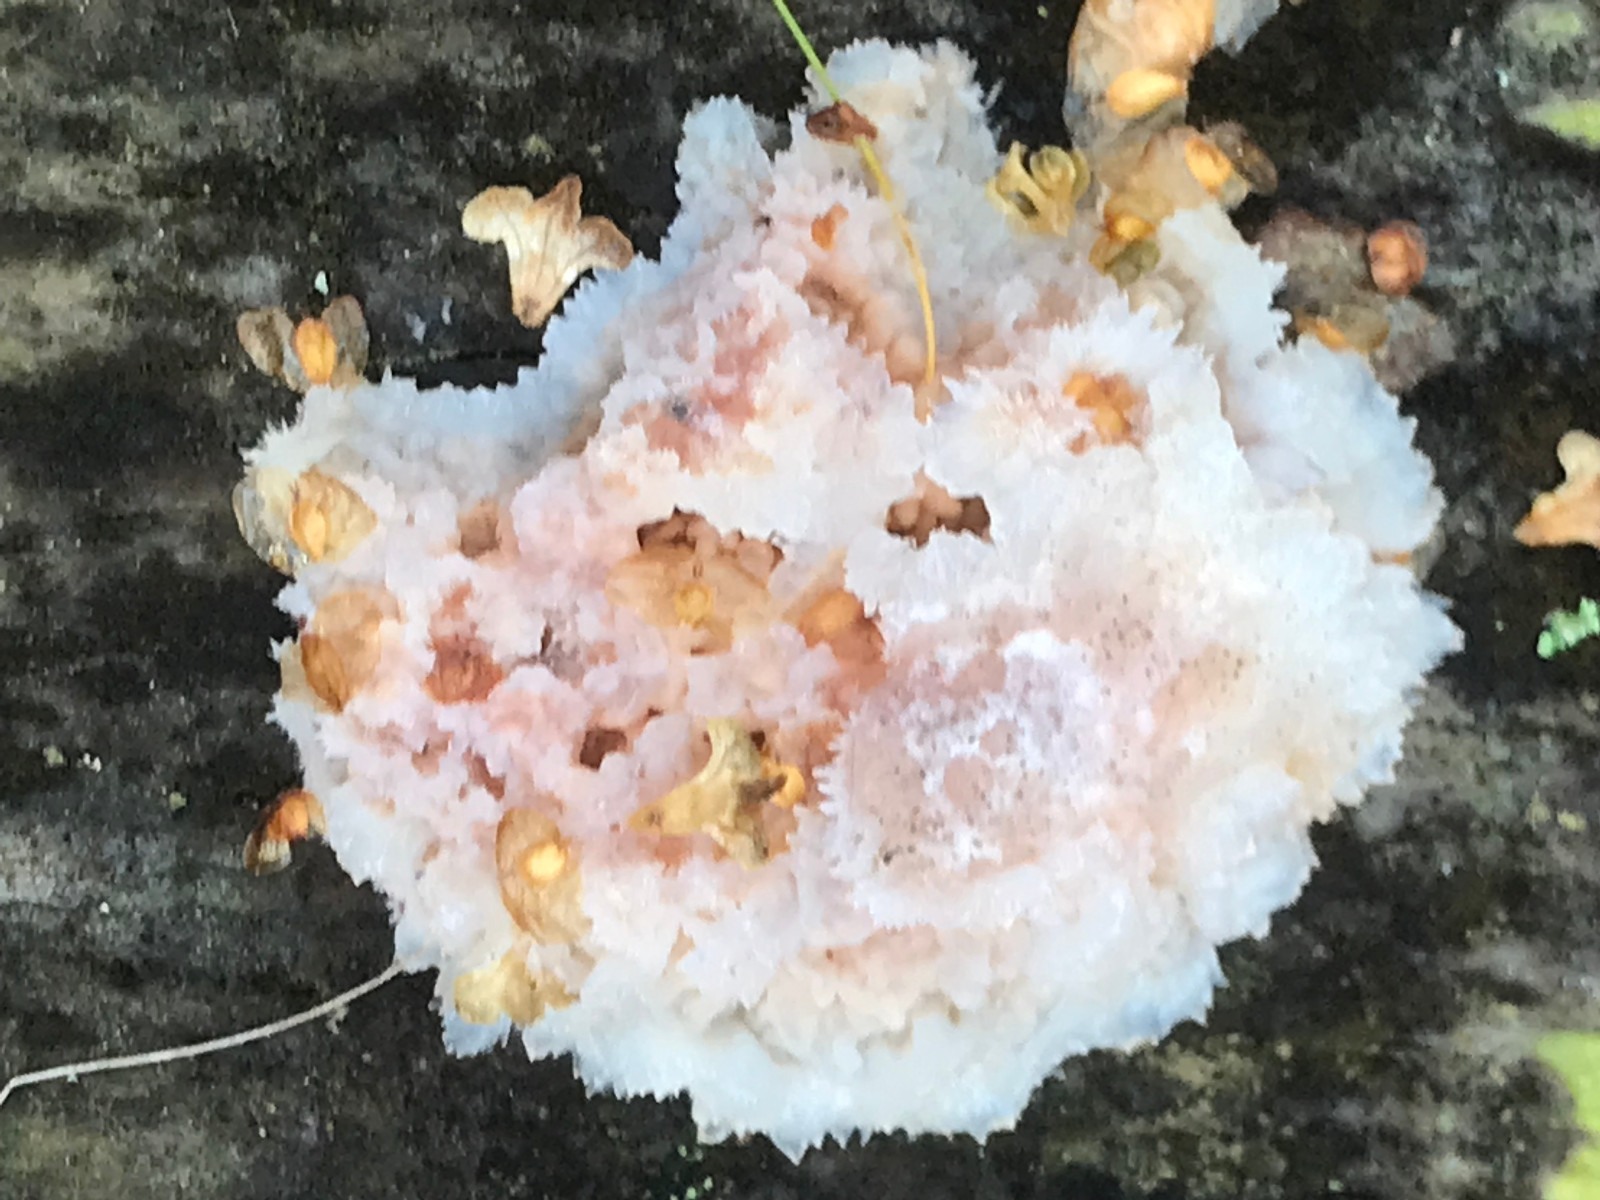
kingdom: Fungi
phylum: Basidiomycota
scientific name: Basidiomycota
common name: basidiesvampe
